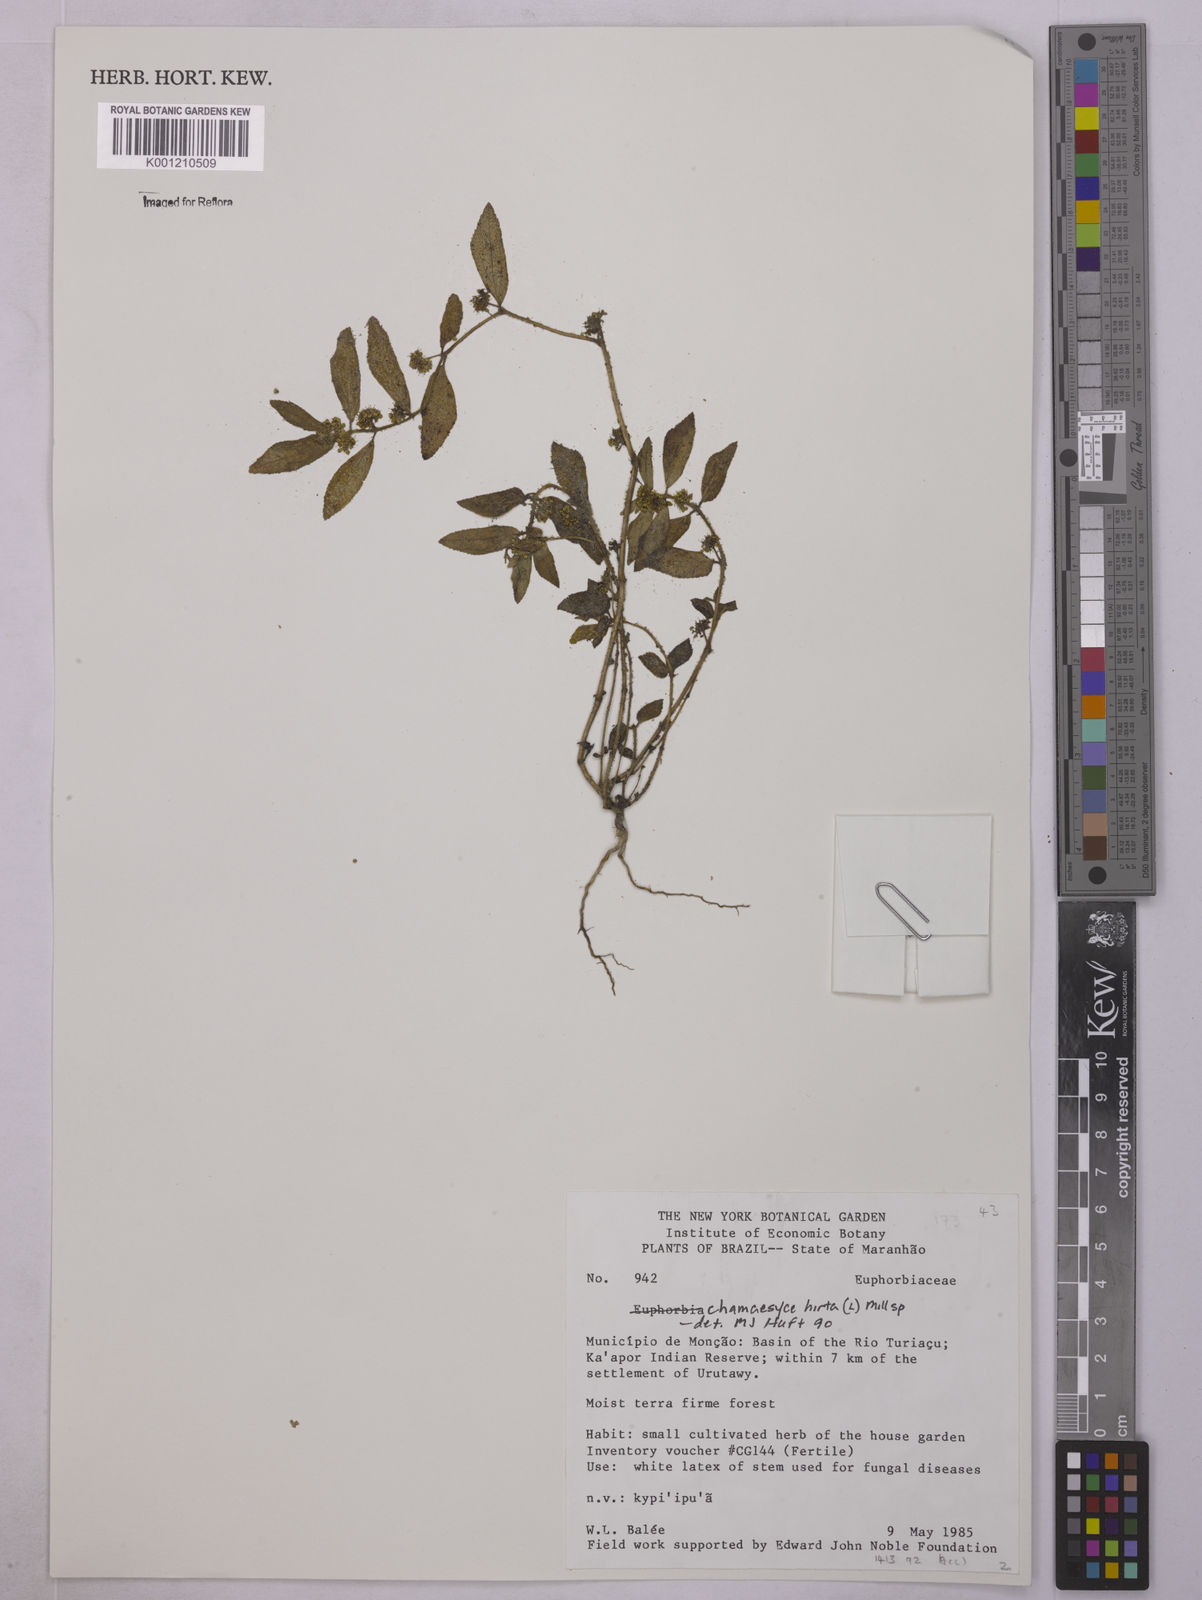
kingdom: Plantae
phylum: Tracheophyta
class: Magnoliopsida
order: Malpighiales
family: Euphorbiaceae
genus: Euphorbia
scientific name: Euphorbia hirta
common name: Pillpod sandmat
